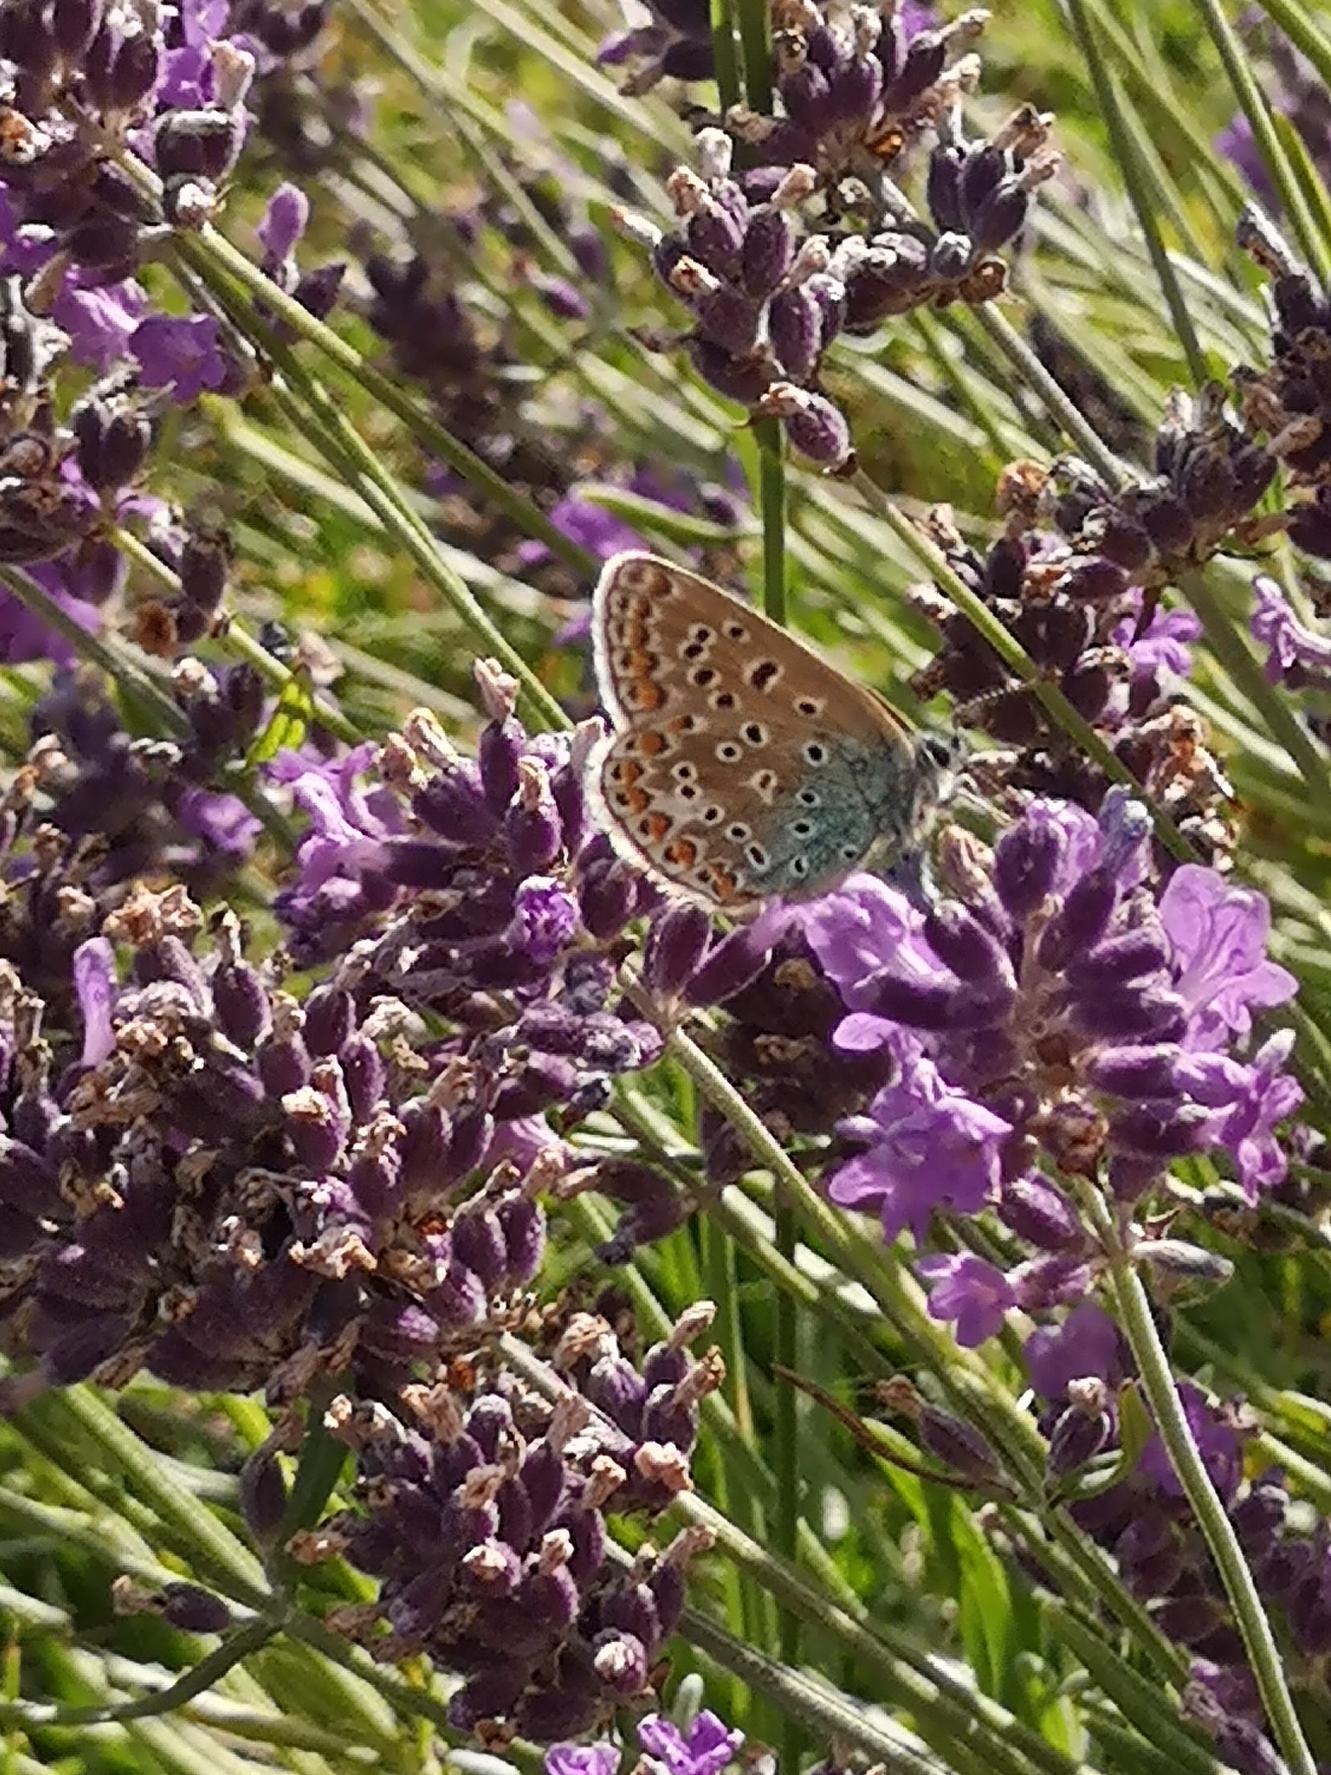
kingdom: Animalia
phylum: Arthropoda
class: Insecta
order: Lepidoptera
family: Lycaenidae
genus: Polyommatus
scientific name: Polyommatus icarus
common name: Almindelig blåfugl
